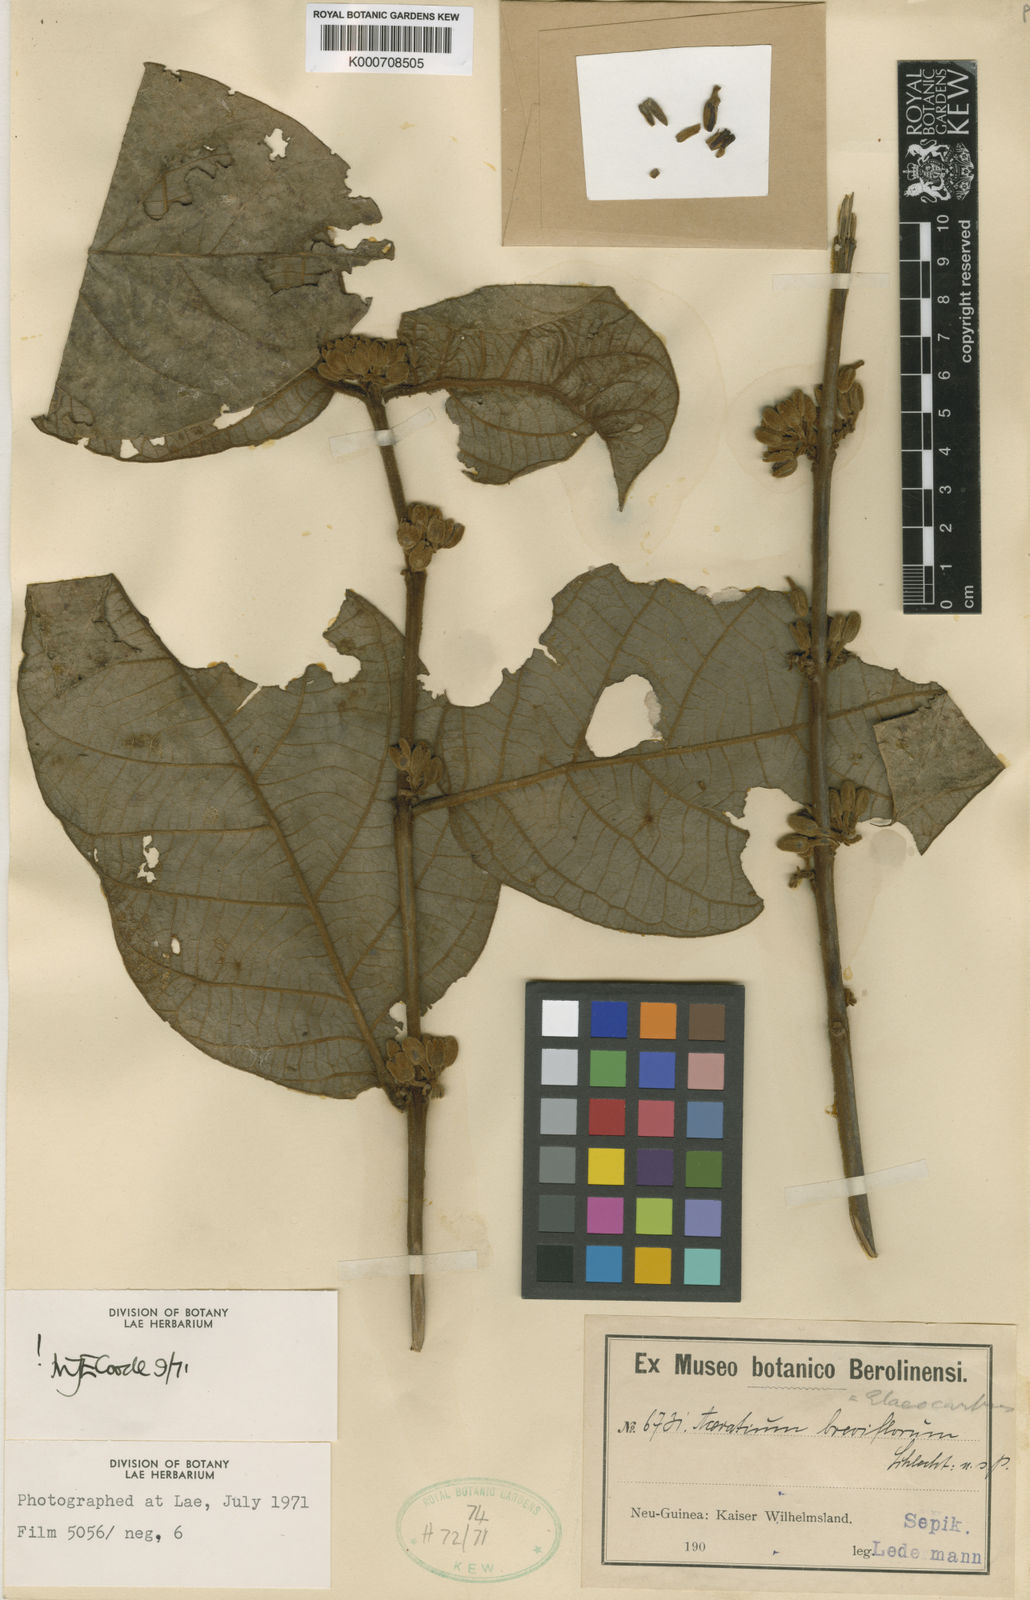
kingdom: Plantae
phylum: Tracheophyta
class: Magnoliopsida
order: Oxalidales
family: Elaeocarpaceae
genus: Aceratium
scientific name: Aceratium pittosporoides
